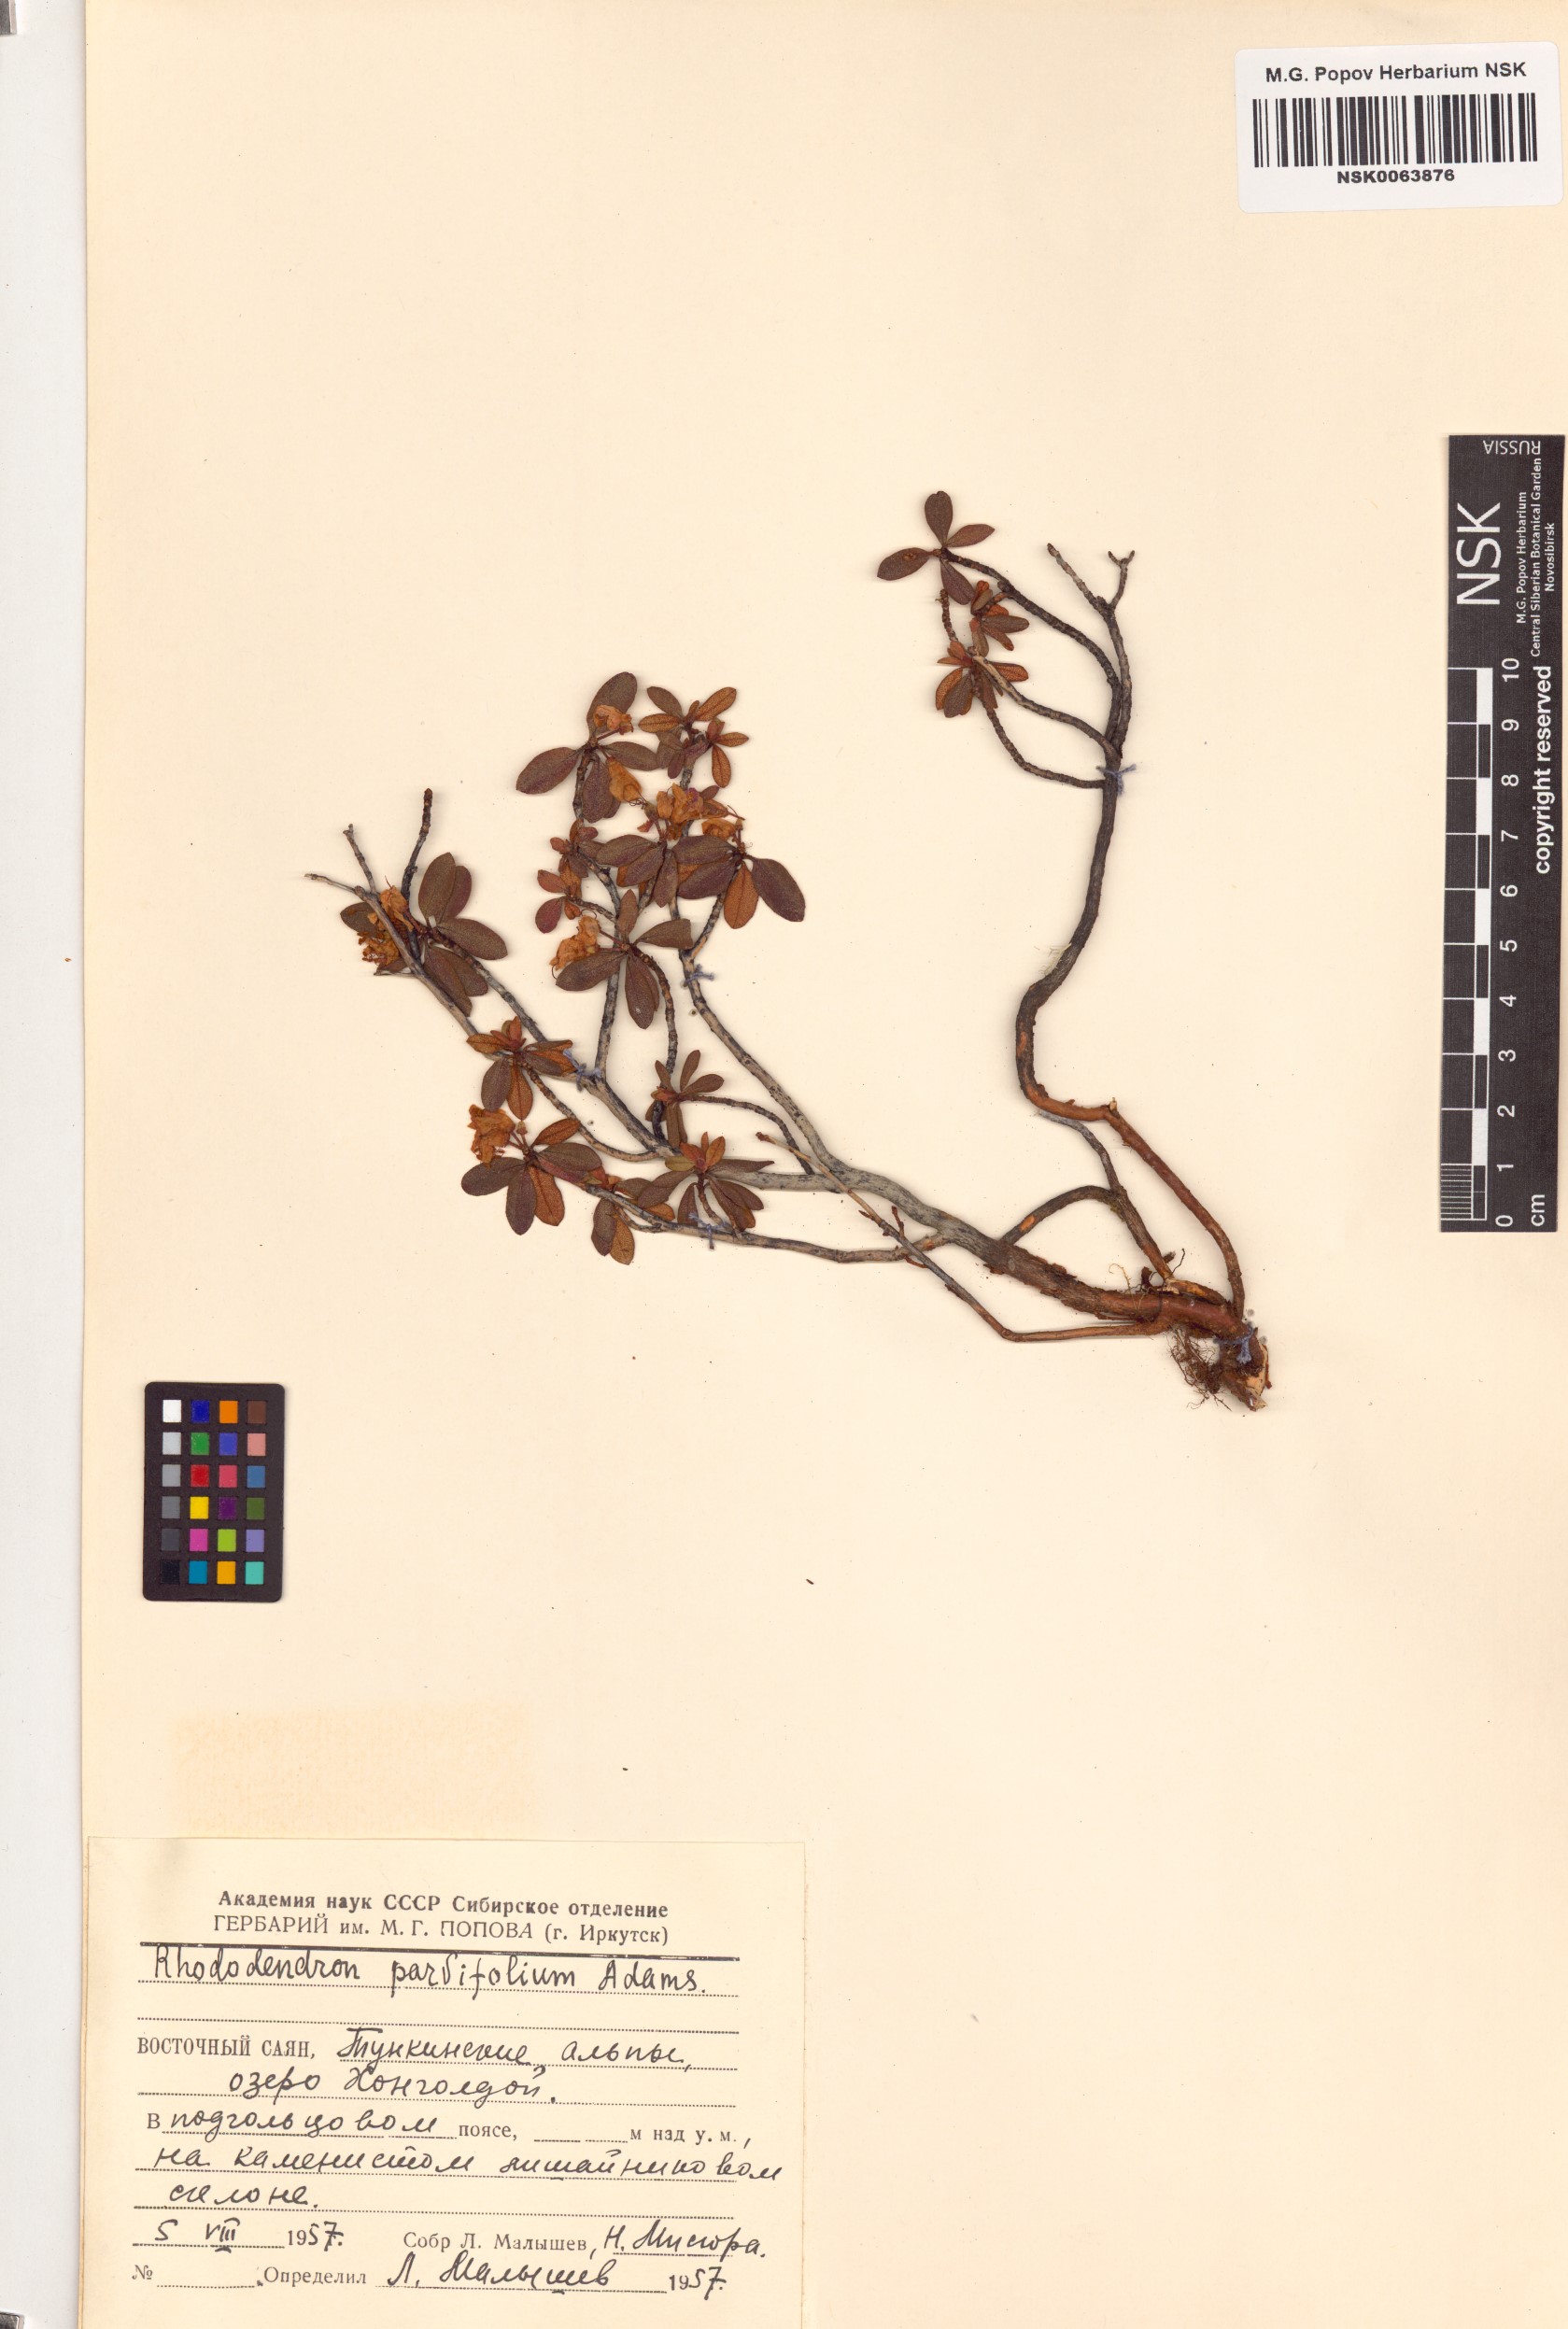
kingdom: Plantae
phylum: Tracheophyta
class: Magnoliopsida
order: Ericales
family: Ericaceae
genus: Rhododendron
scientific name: Rhododendron parvifolium
